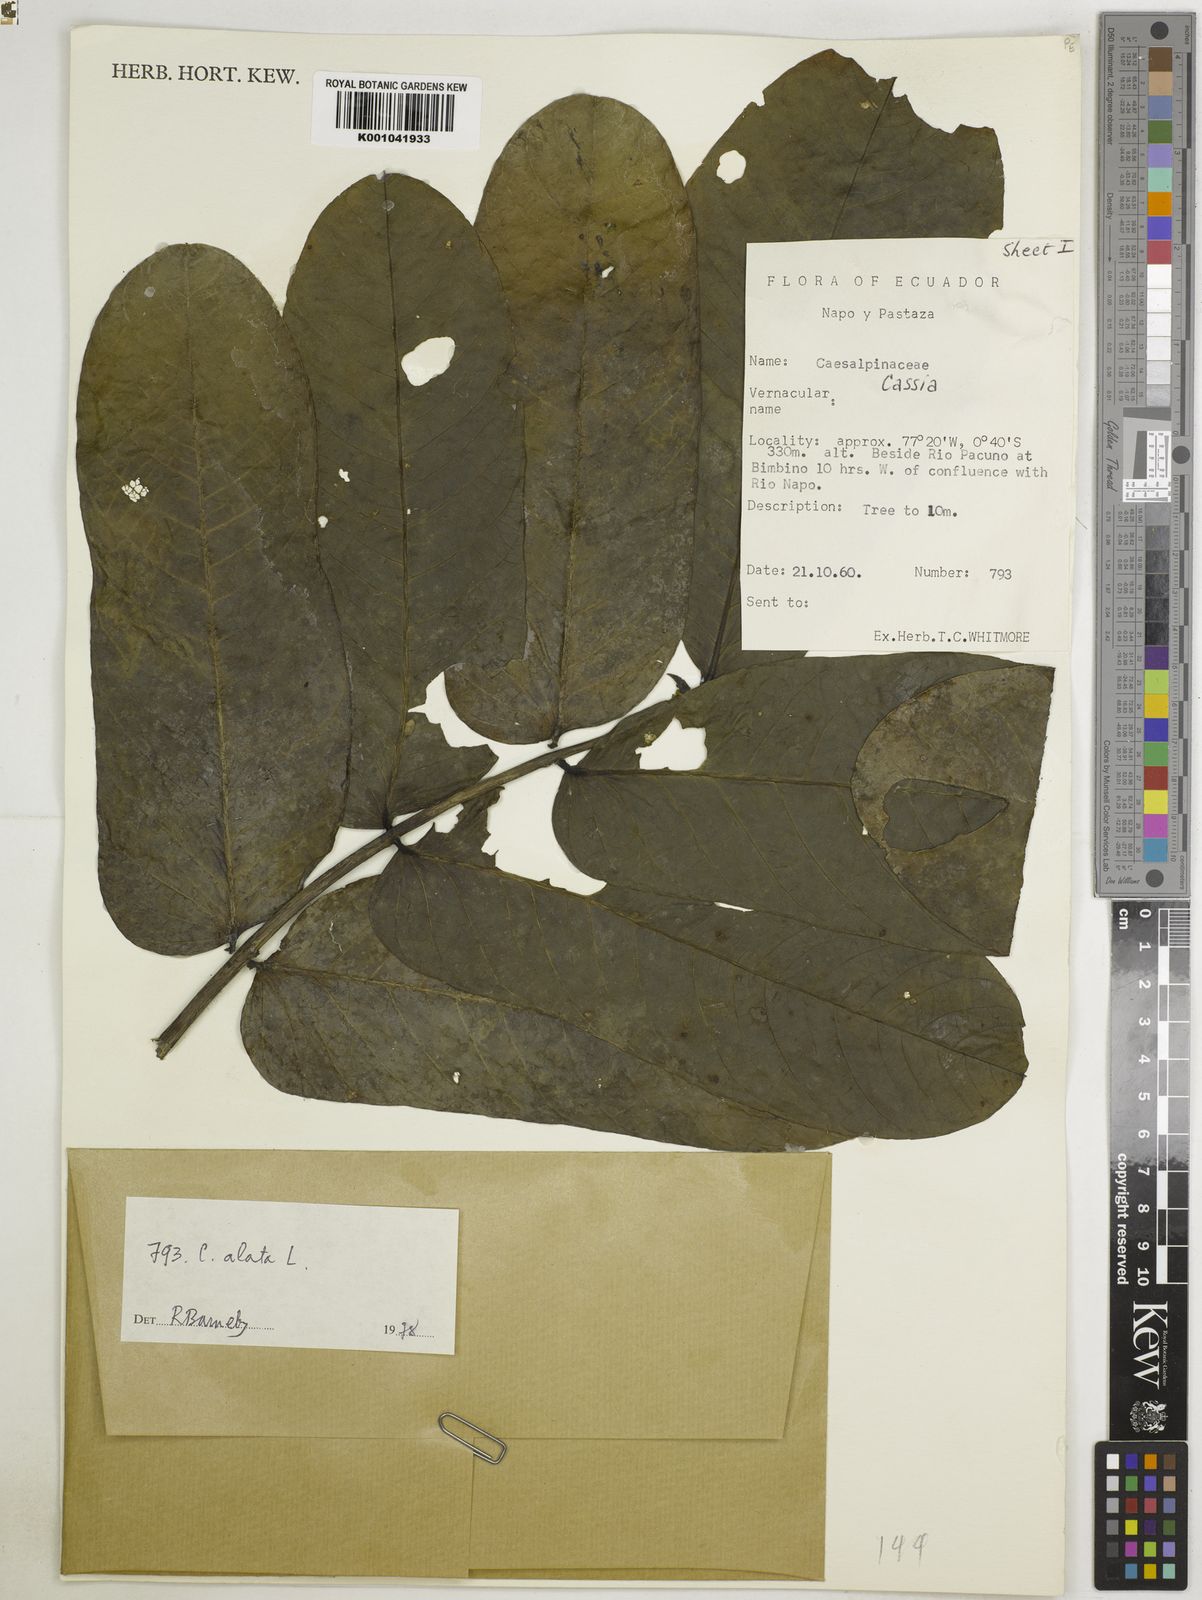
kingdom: Plantae
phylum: Tracheophyta
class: Magnoliopsida
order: Fabales
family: Fabaceae
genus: Senna
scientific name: Senna alata
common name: Emperor's candlesticks
